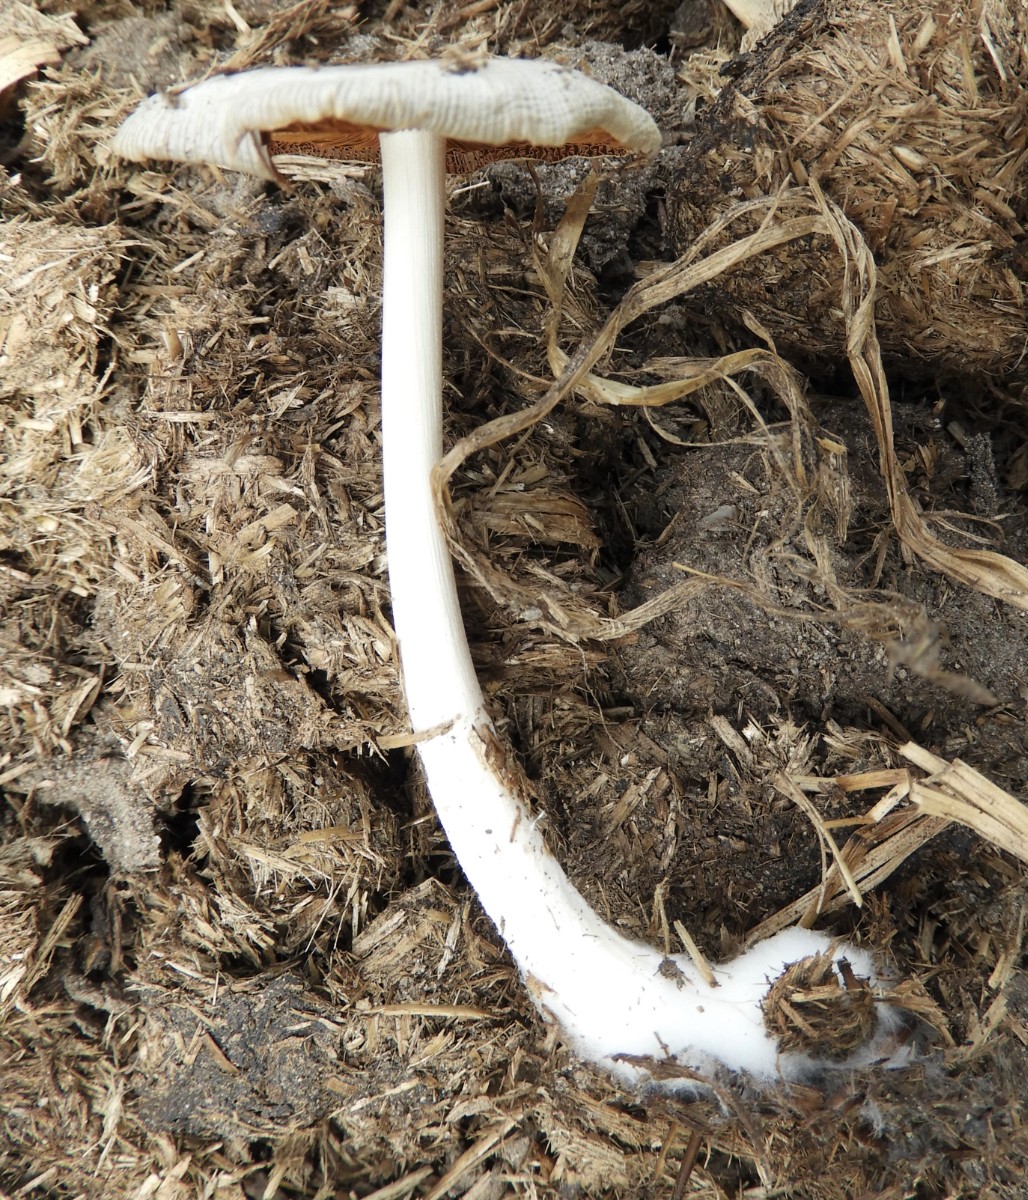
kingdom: Fungi
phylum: Basidiomycota
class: Agaricomycetes
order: Agaricales
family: Bolbitiaceae
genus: Bolbitius
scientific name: Bolbitius
